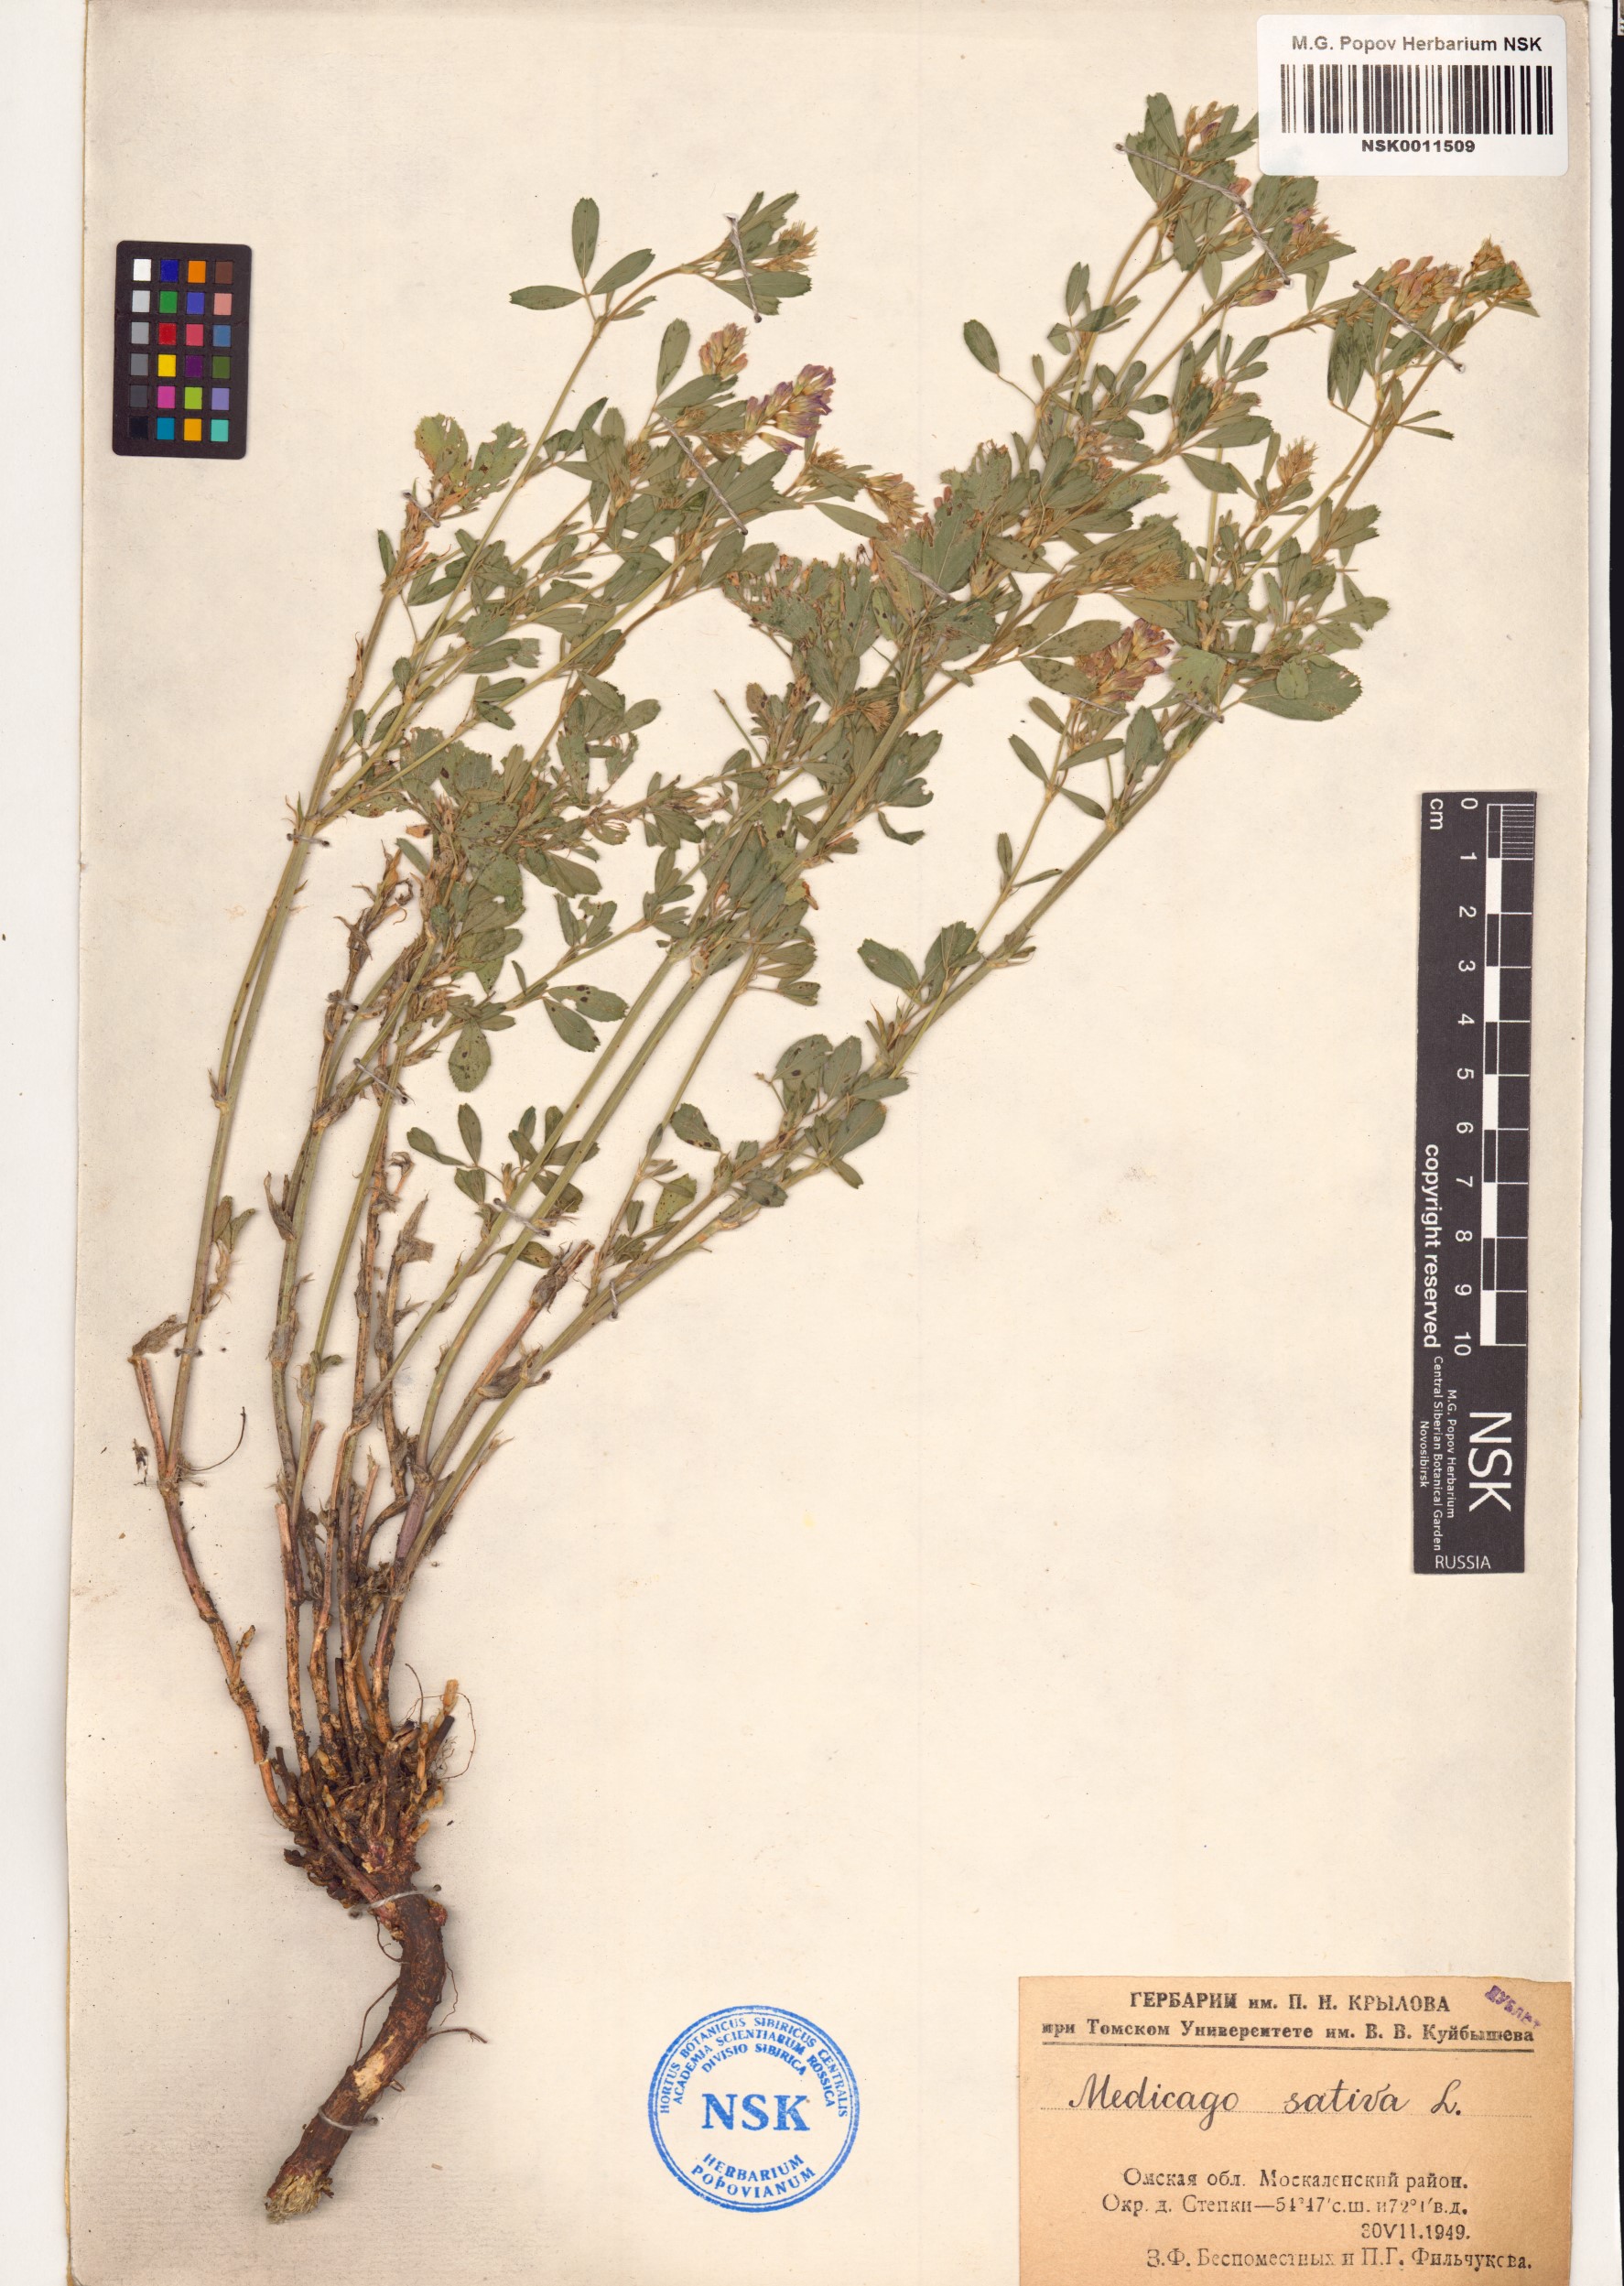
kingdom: Plantae
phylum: Tracheophyta
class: Magnoliopsida
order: Fabales
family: Fabaceae
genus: Medicago
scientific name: Medicago sativa
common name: Alfalfa
